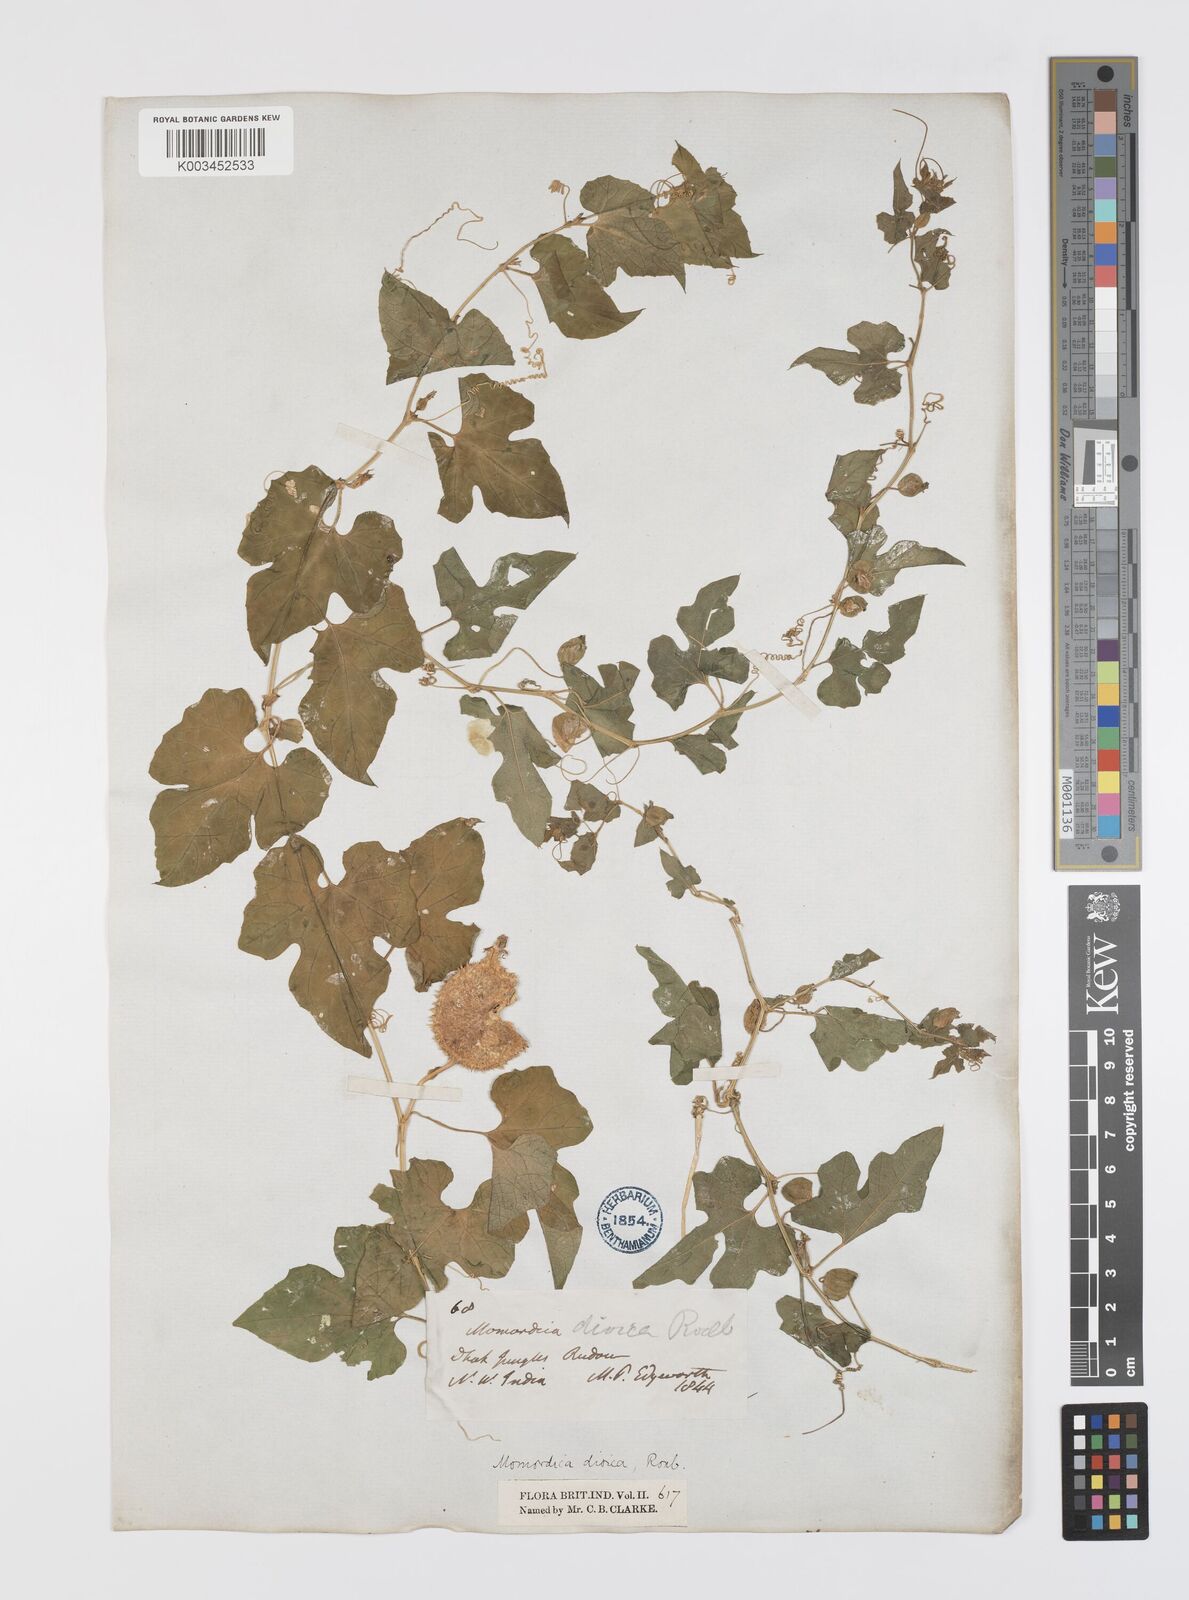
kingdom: Plantae
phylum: Tracheophyta
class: Magnoliopsida
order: Cucurbitales
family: Cucurbitaceae
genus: Momordica
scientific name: Momordica dioica
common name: Spine gourd
